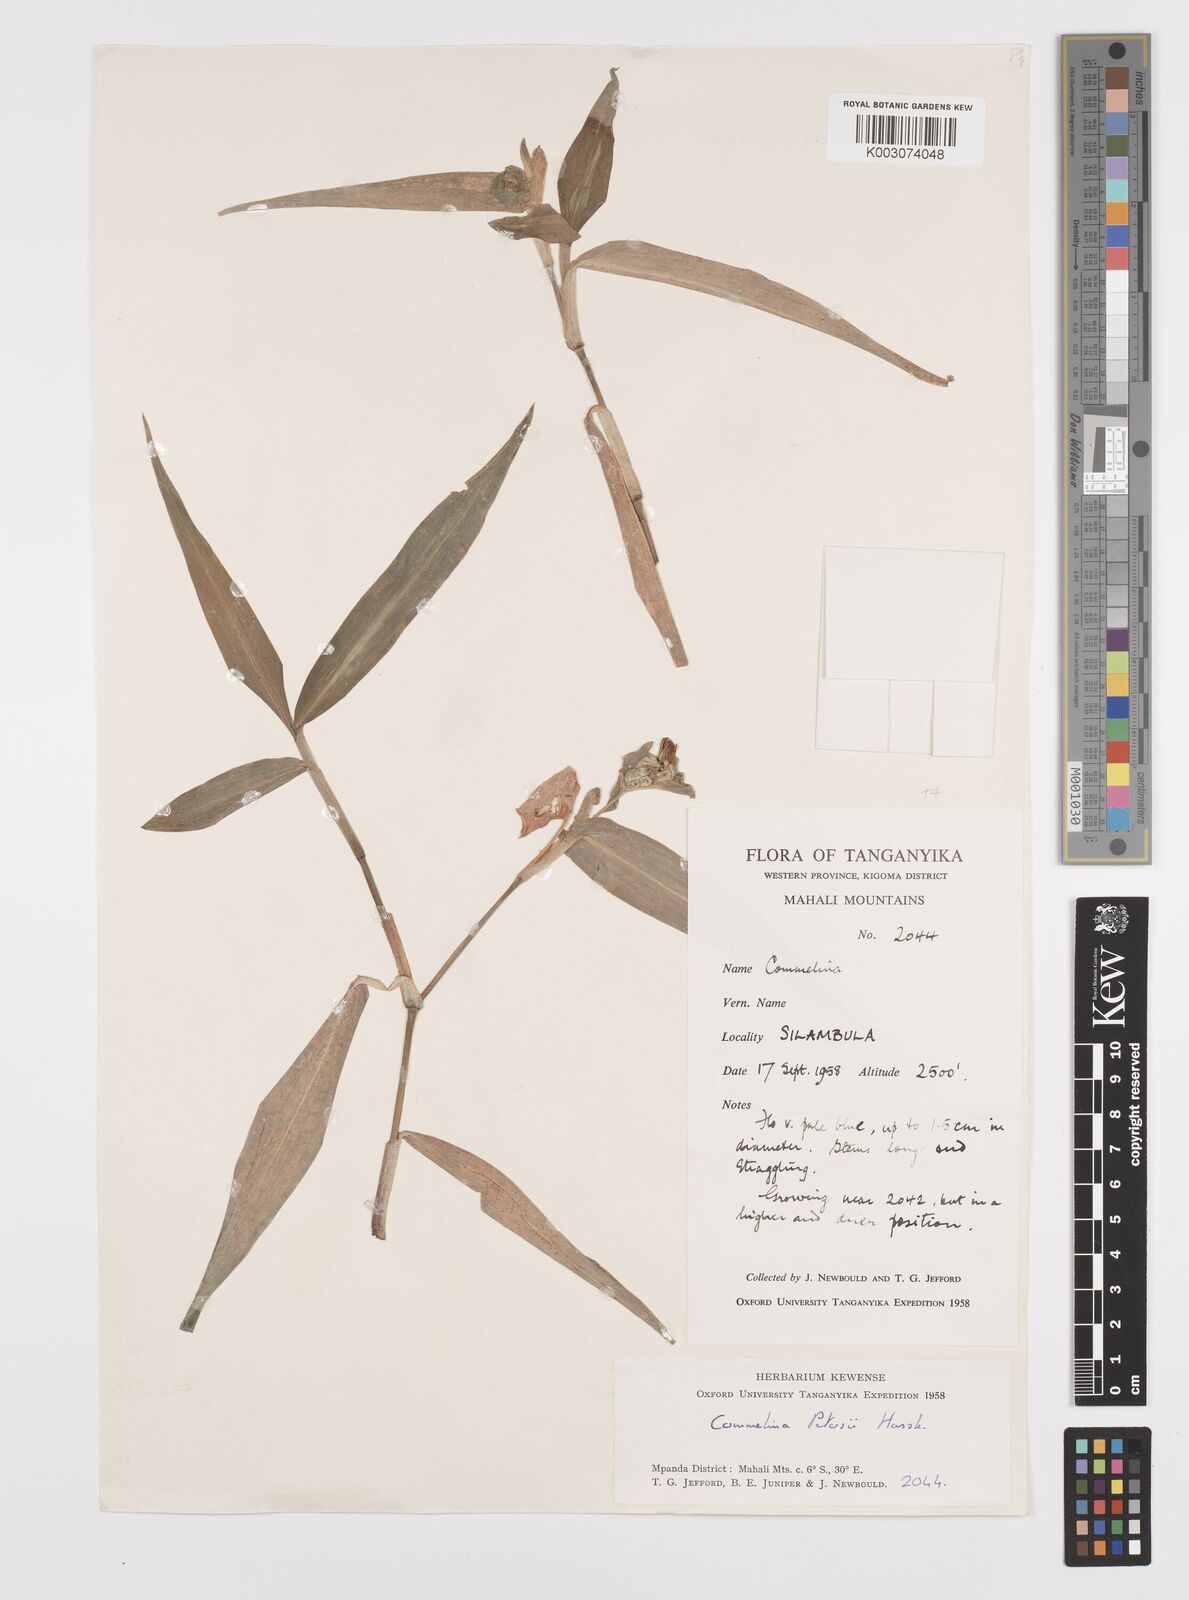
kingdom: Plantae
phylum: Tracheophyta
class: Liliopsida
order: Commelinales
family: Commelinaceae
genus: Commelina
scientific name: Commelina petersii
